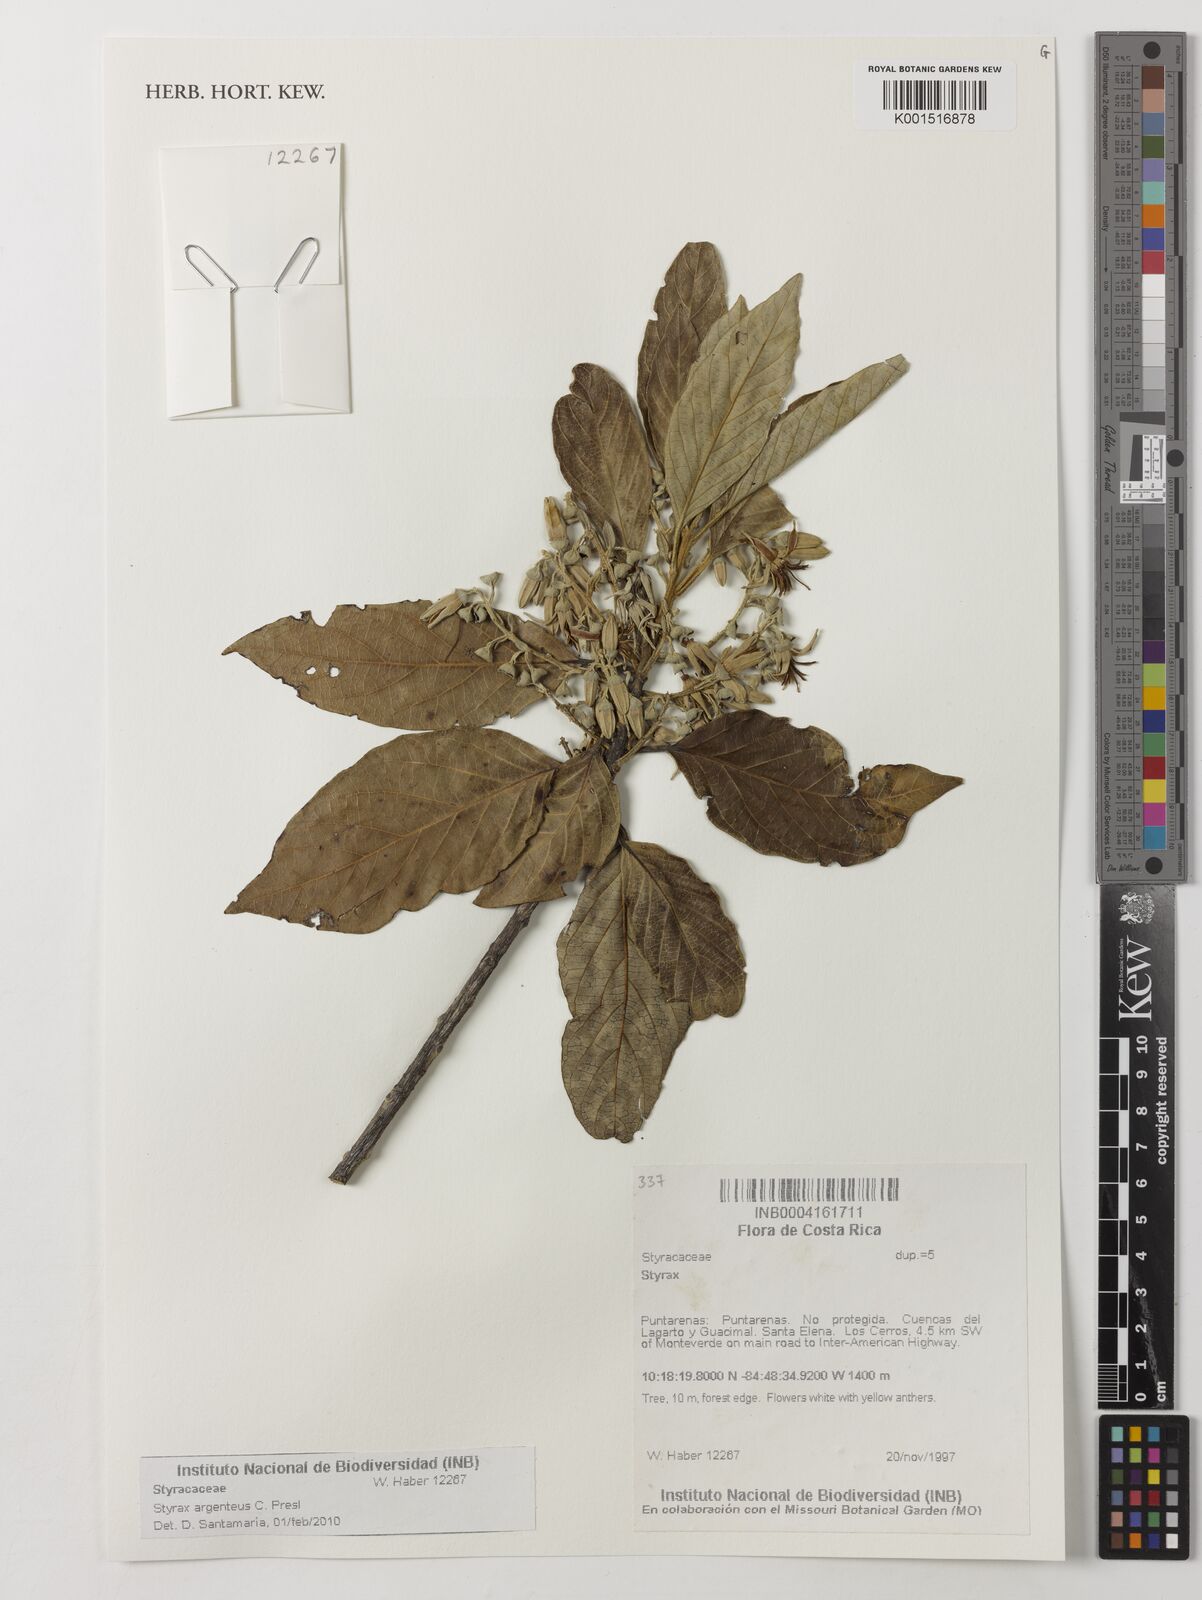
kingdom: Plantae
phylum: Tracheophyta
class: Magnoliopsida
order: Ericales
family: Styracaceae
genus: Styrax
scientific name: Styrax argenteus
